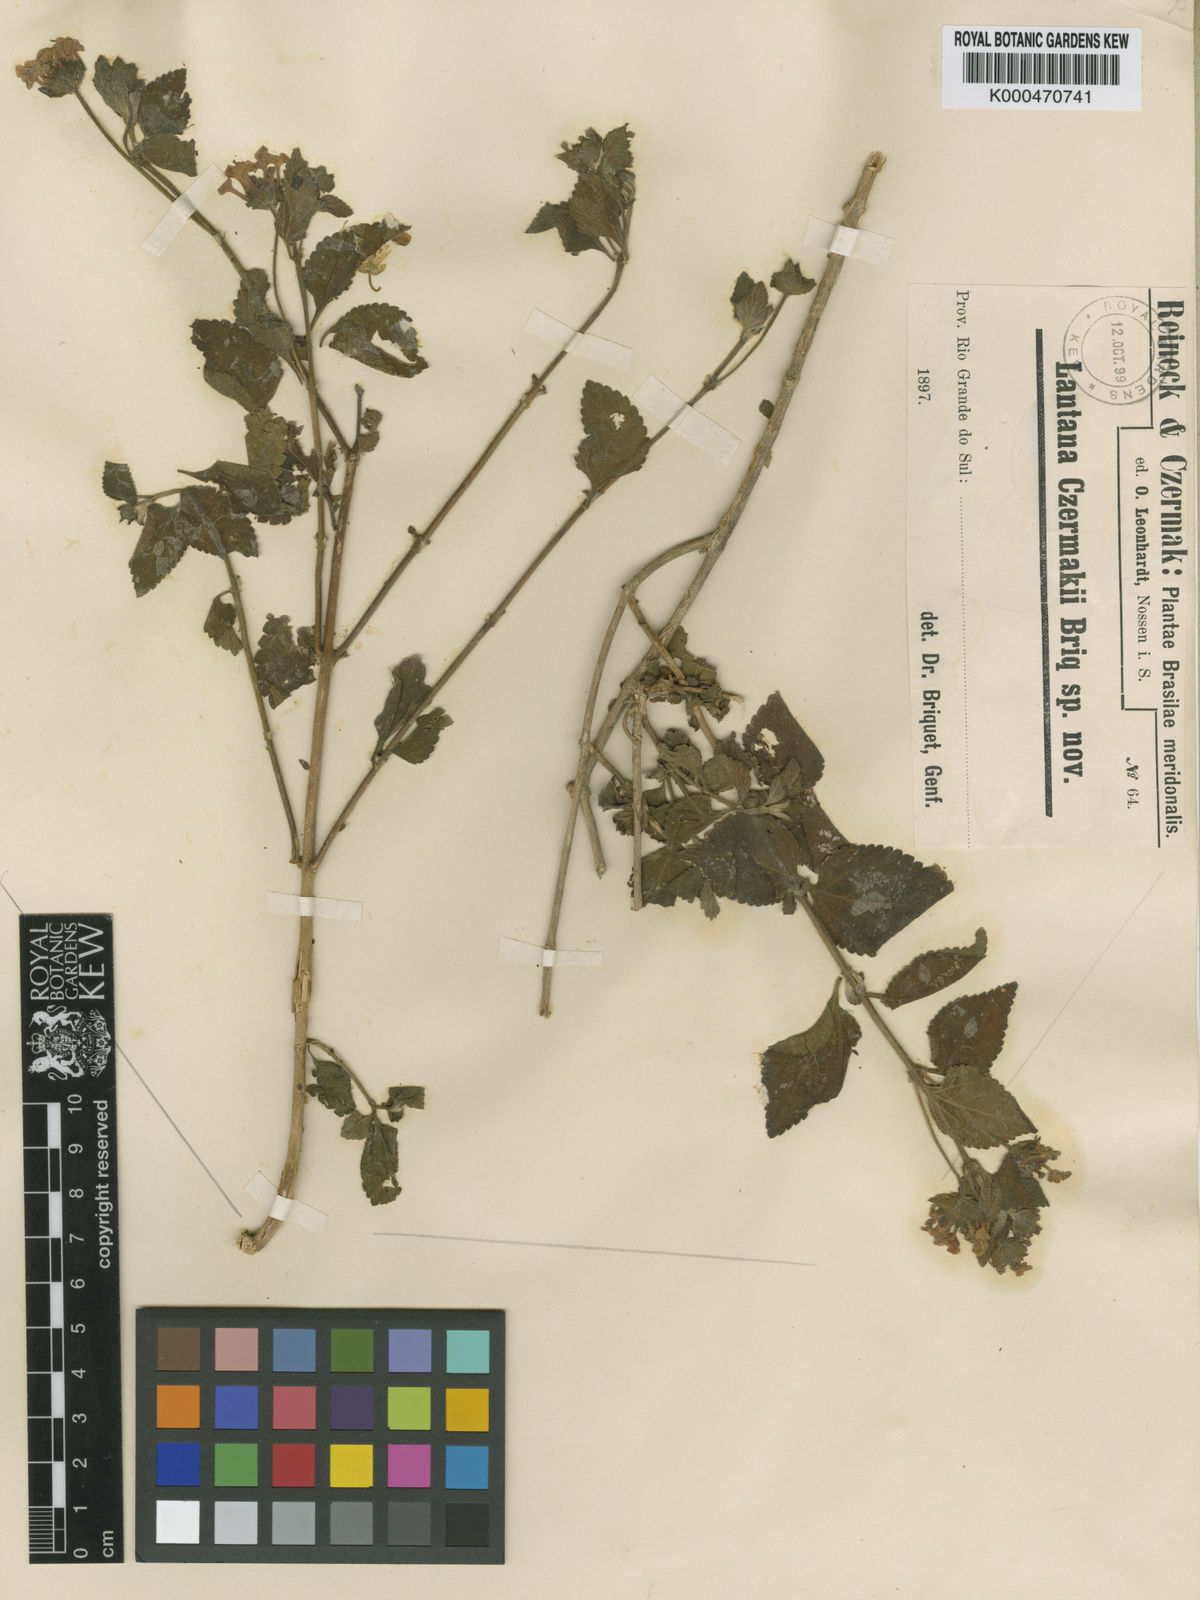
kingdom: Plantae
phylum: Tracheophyta
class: Magnoliopsida
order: Lamiales
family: Verbenaceae
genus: Lantana
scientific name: Lantana fucata
